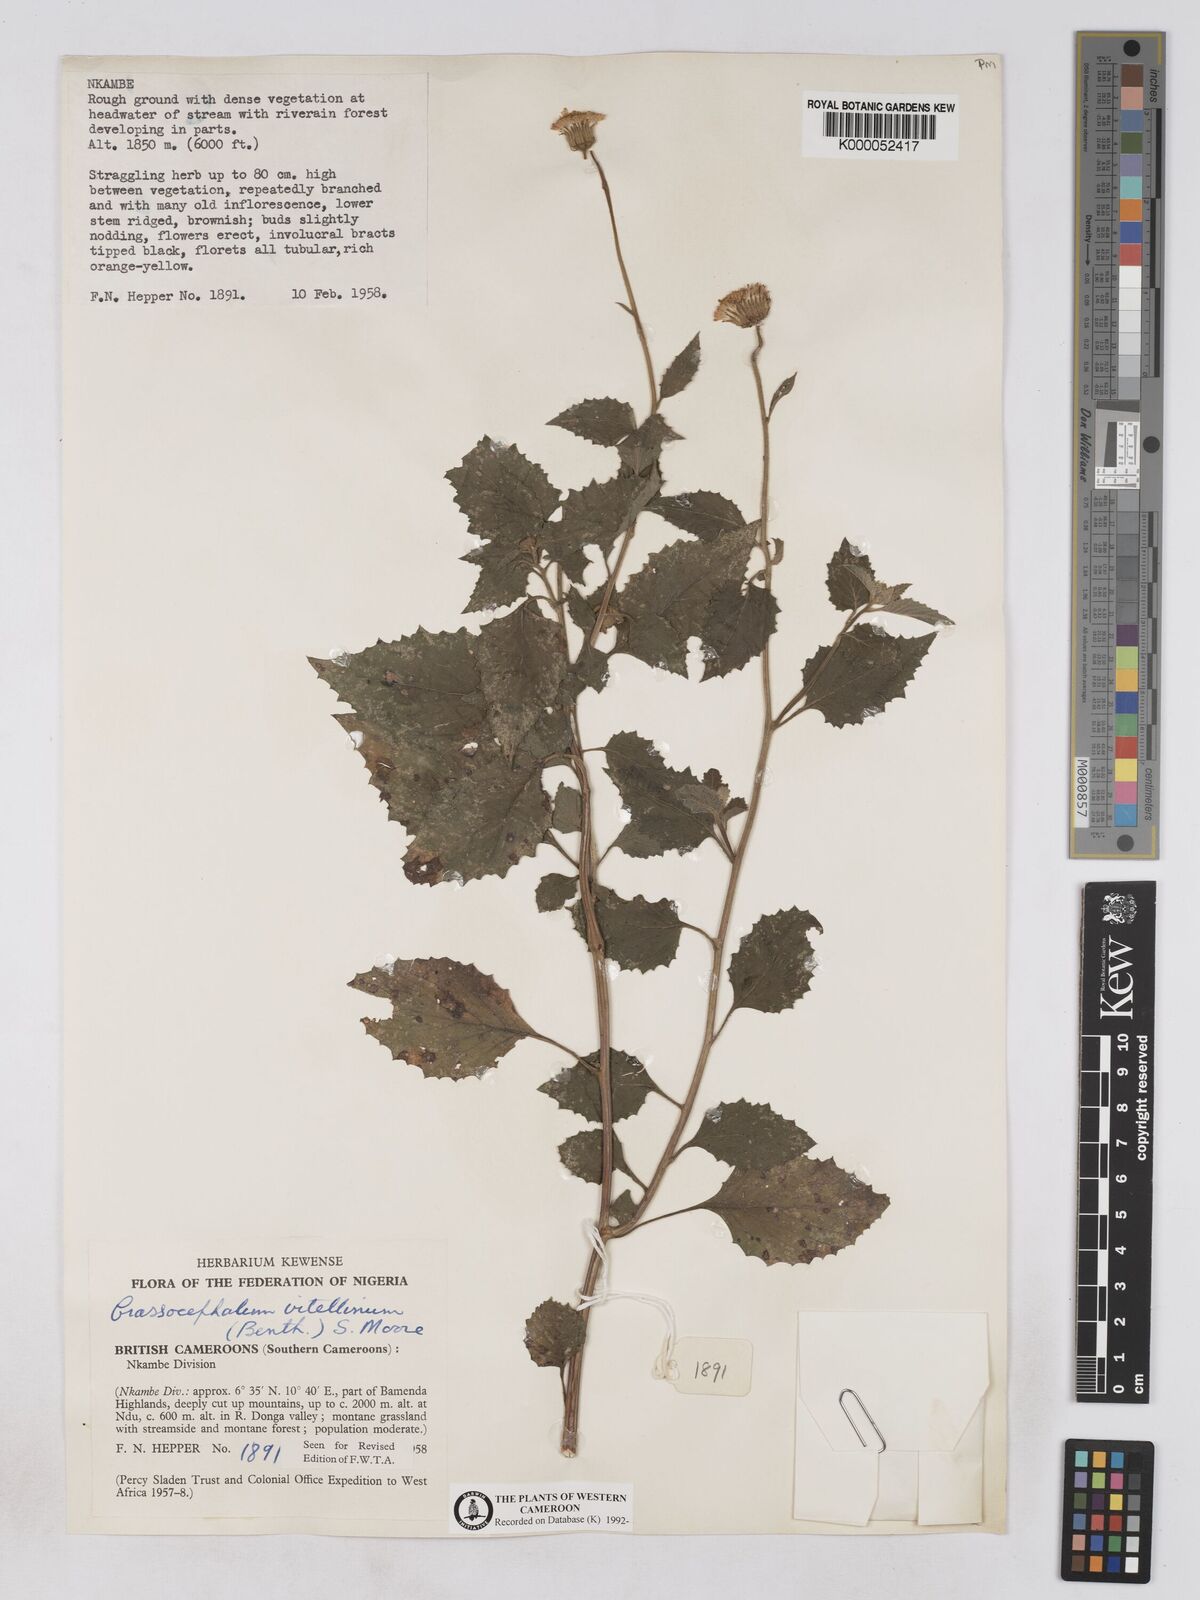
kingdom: Plantae
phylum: Tracheophyta
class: Magnoliopsida
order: Asterales
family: Asteraceae
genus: Crassocephalum
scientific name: Crassocephalum vitellinum
